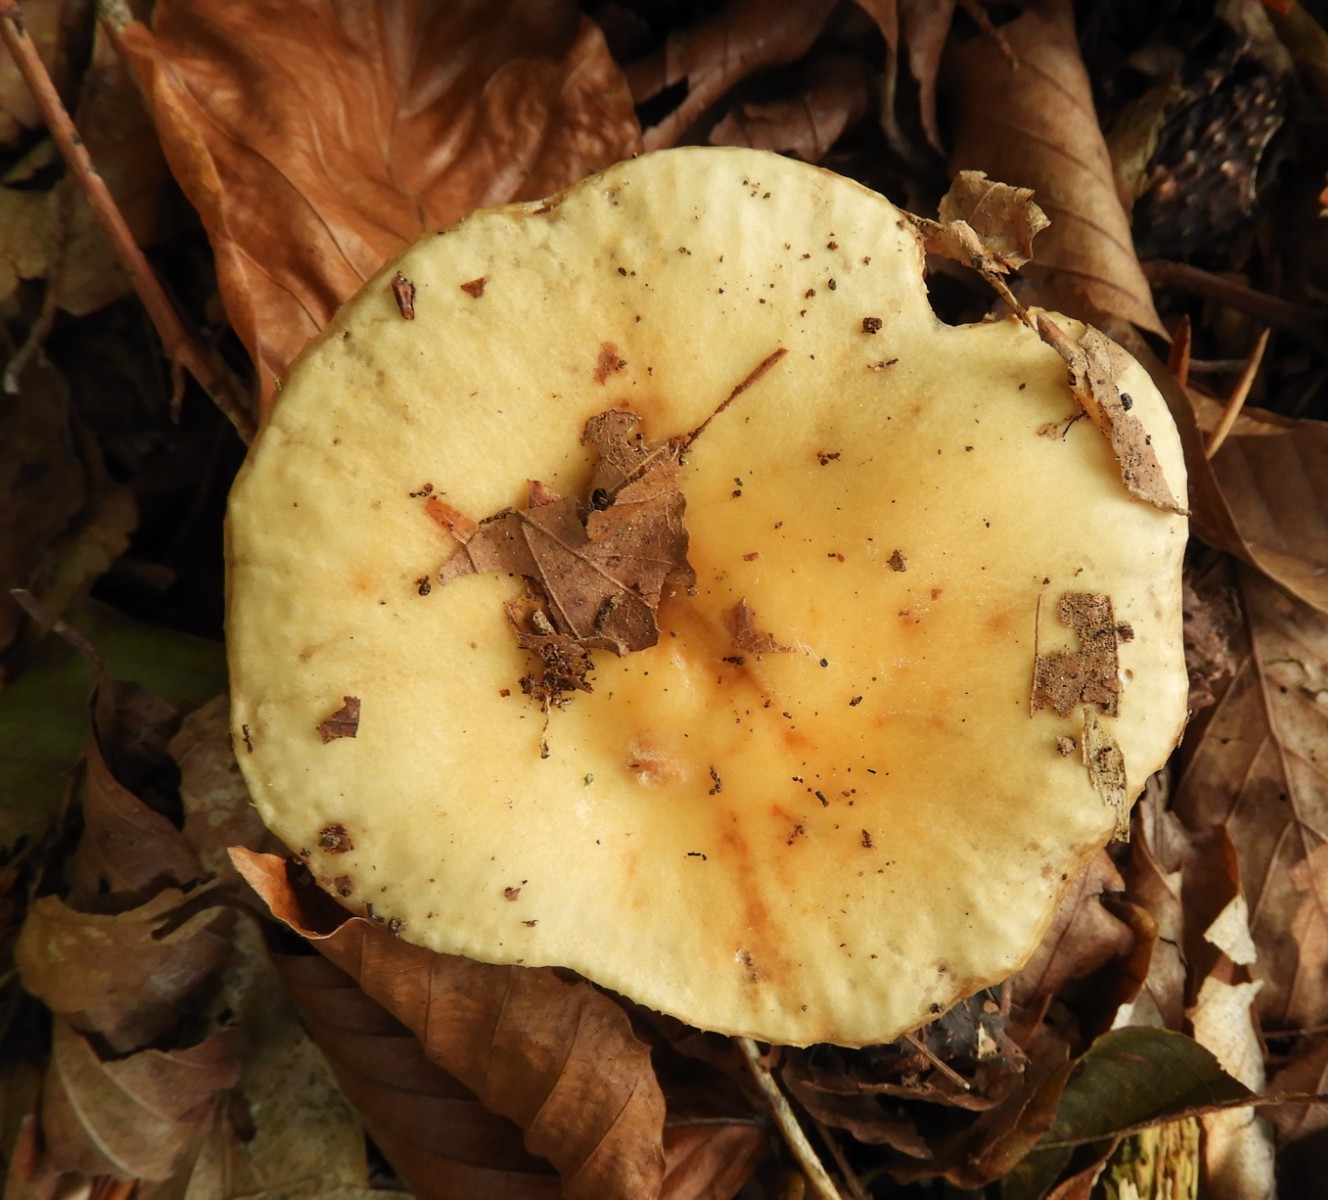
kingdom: Fungi
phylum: Basidiomycota
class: Agaricomycetes
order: Russulales
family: Russulaceae
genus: Russula
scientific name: Russula fellea
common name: galde-skørhat
